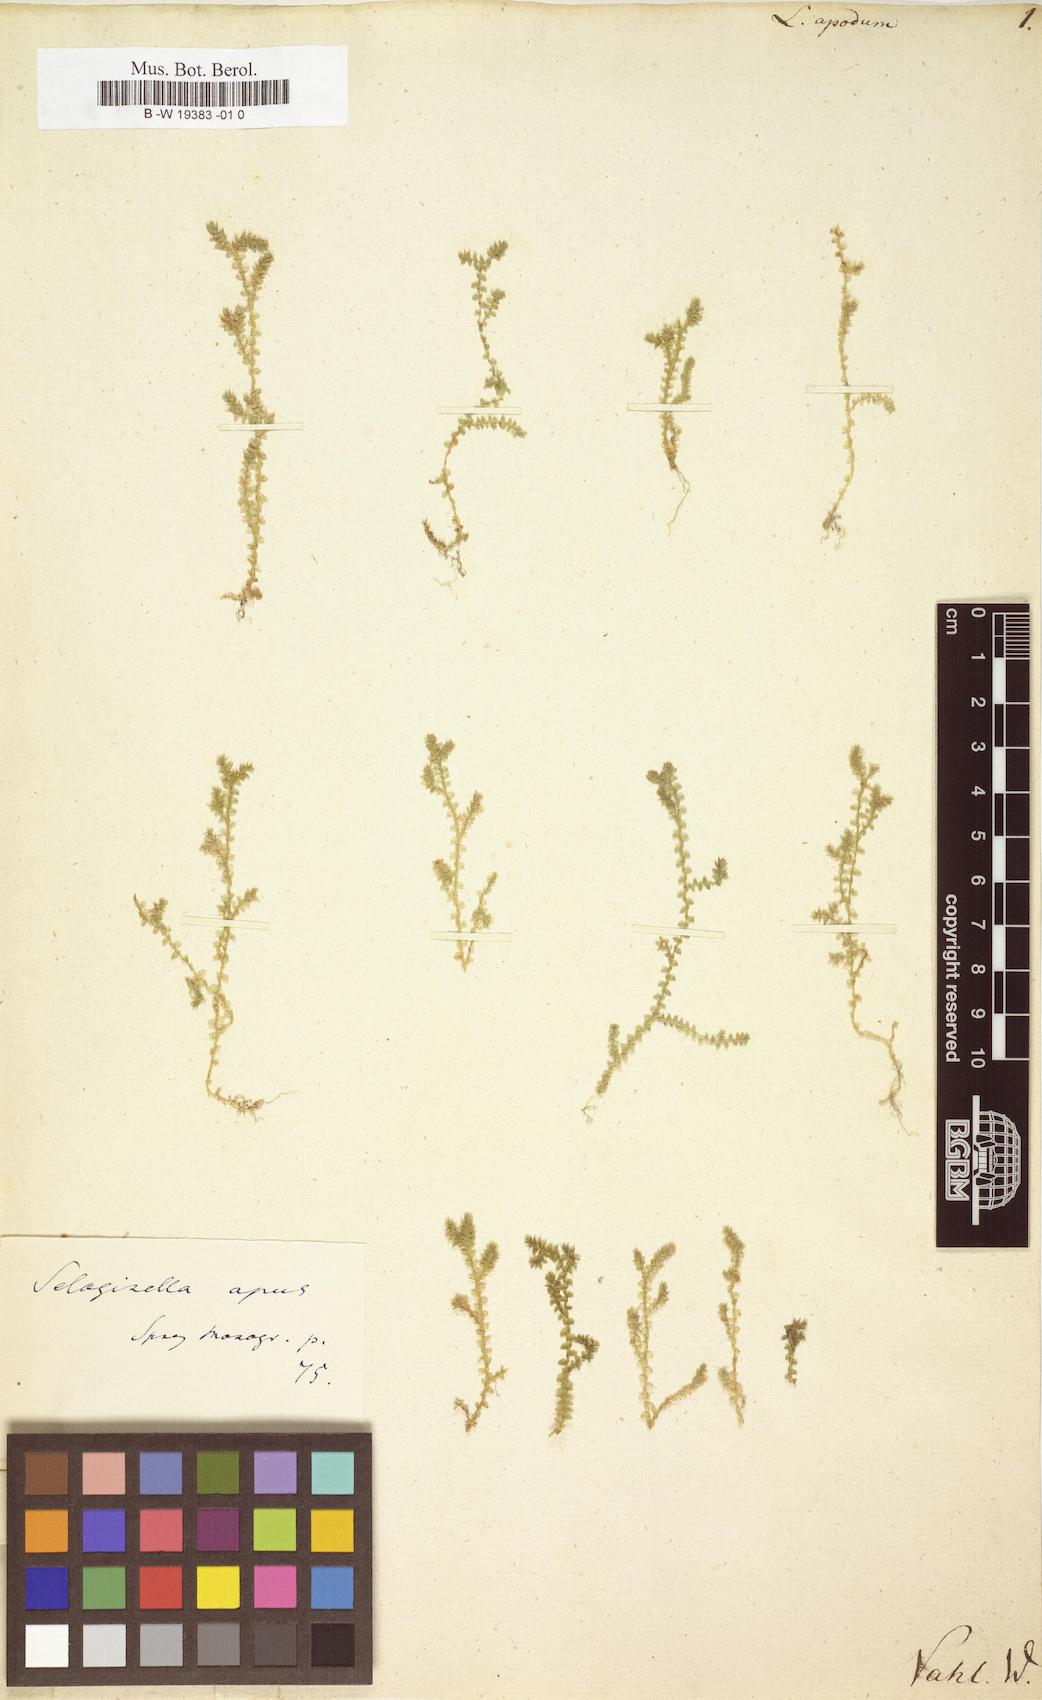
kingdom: Plantae
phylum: Tracheophyta
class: Lycopodiopsida
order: Selaginellales
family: Selaginellaceae
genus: Selaginella
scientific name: Selaginella
